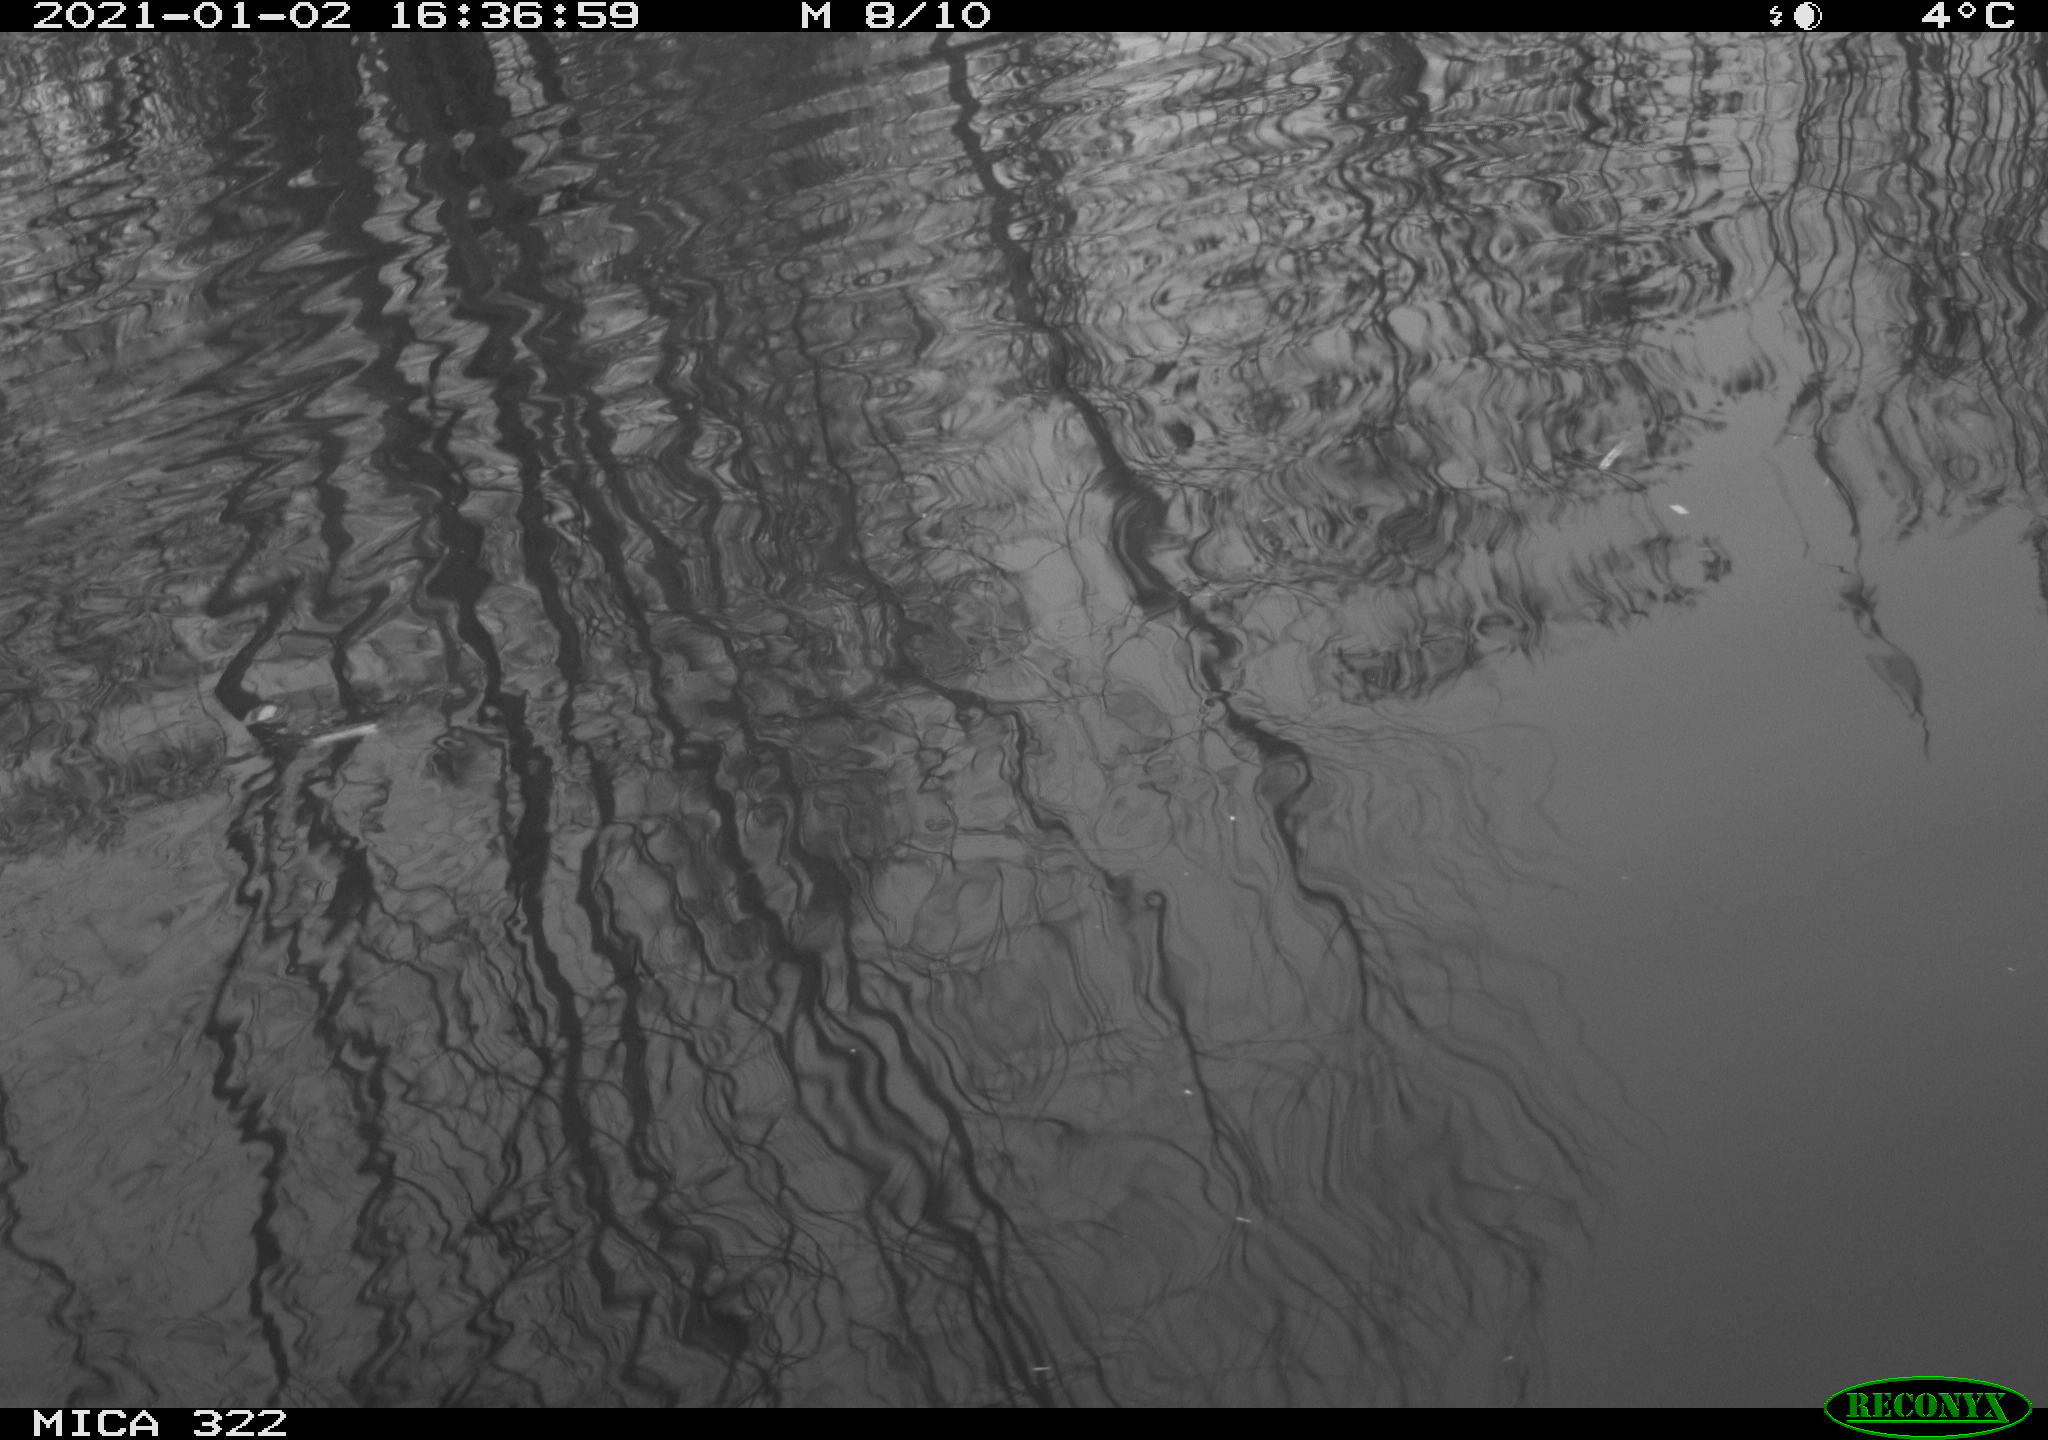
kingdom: Animalia
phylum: Chordata
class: Aves
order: Gruiformes
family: Rallidae
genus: Fulica
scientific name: Fulica atra
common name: Eurasian coot
